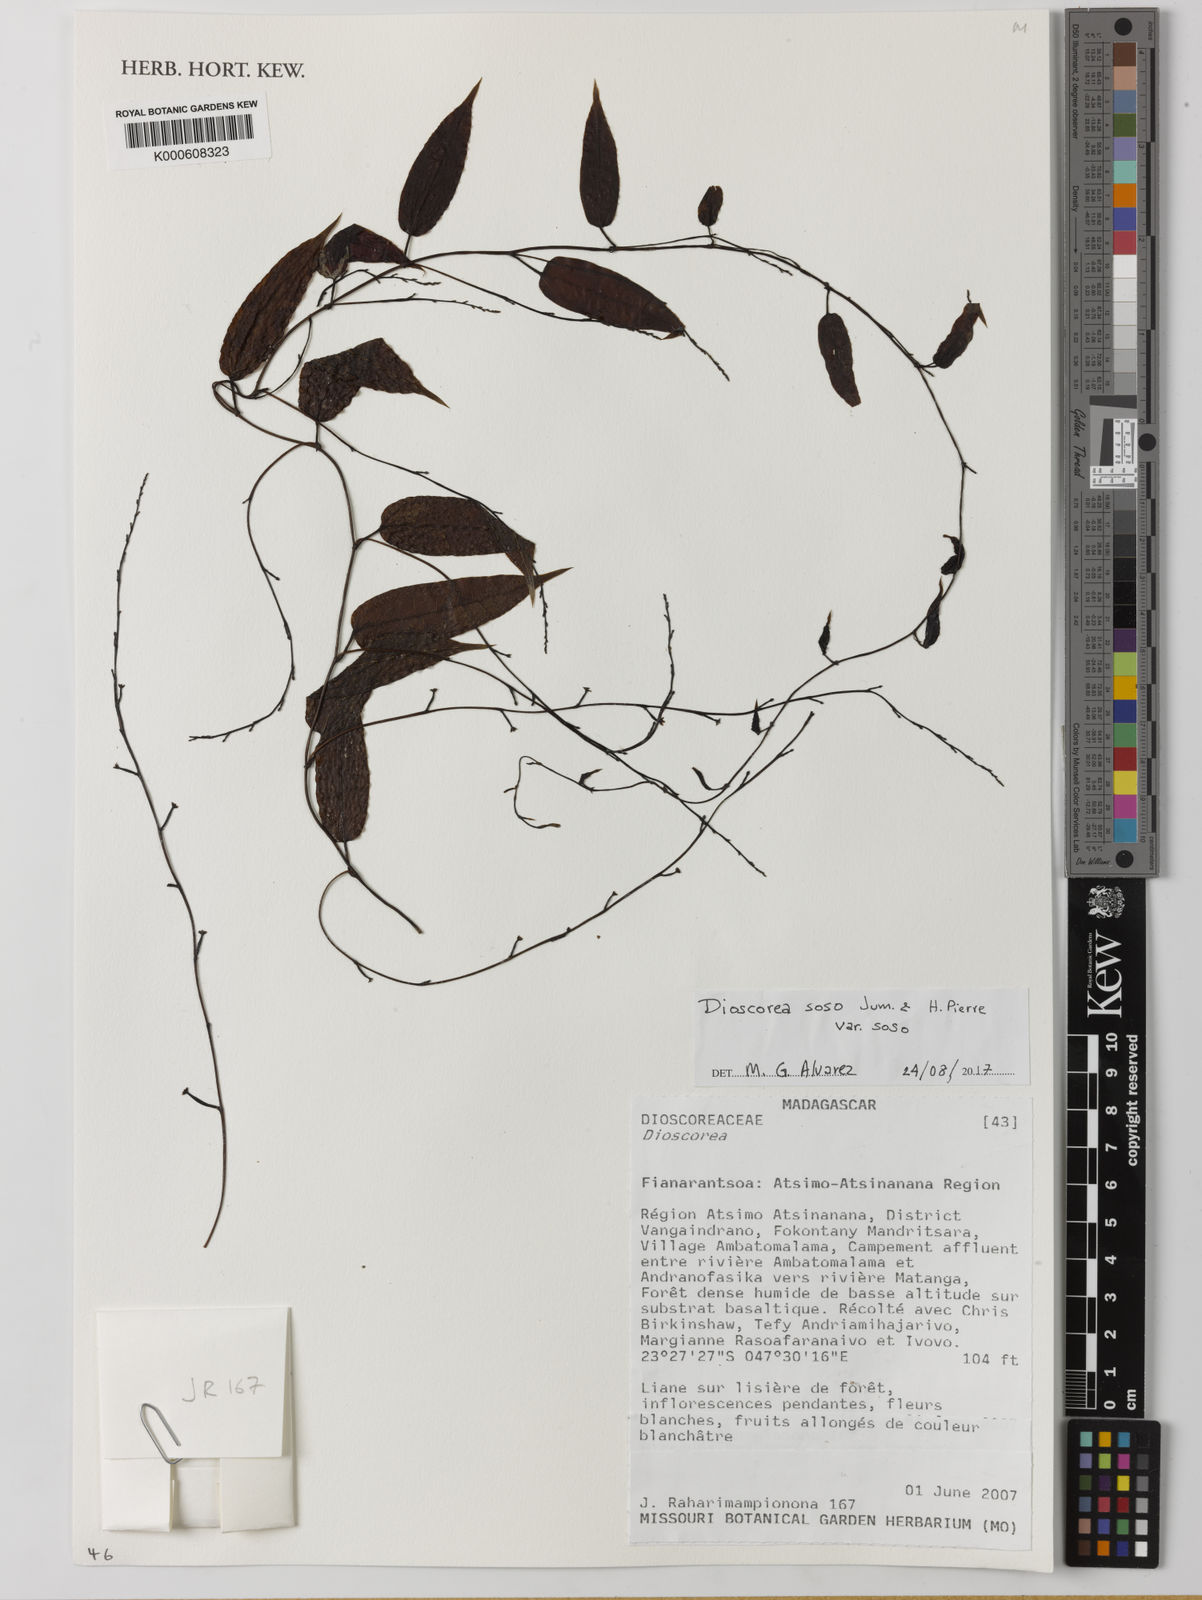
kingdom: Plantae
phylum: Tracheophyta
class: Liliopsida
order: Dioscoreales
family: Dioscoreaceae
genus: Dioscorea
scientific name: Dioscorea soso
